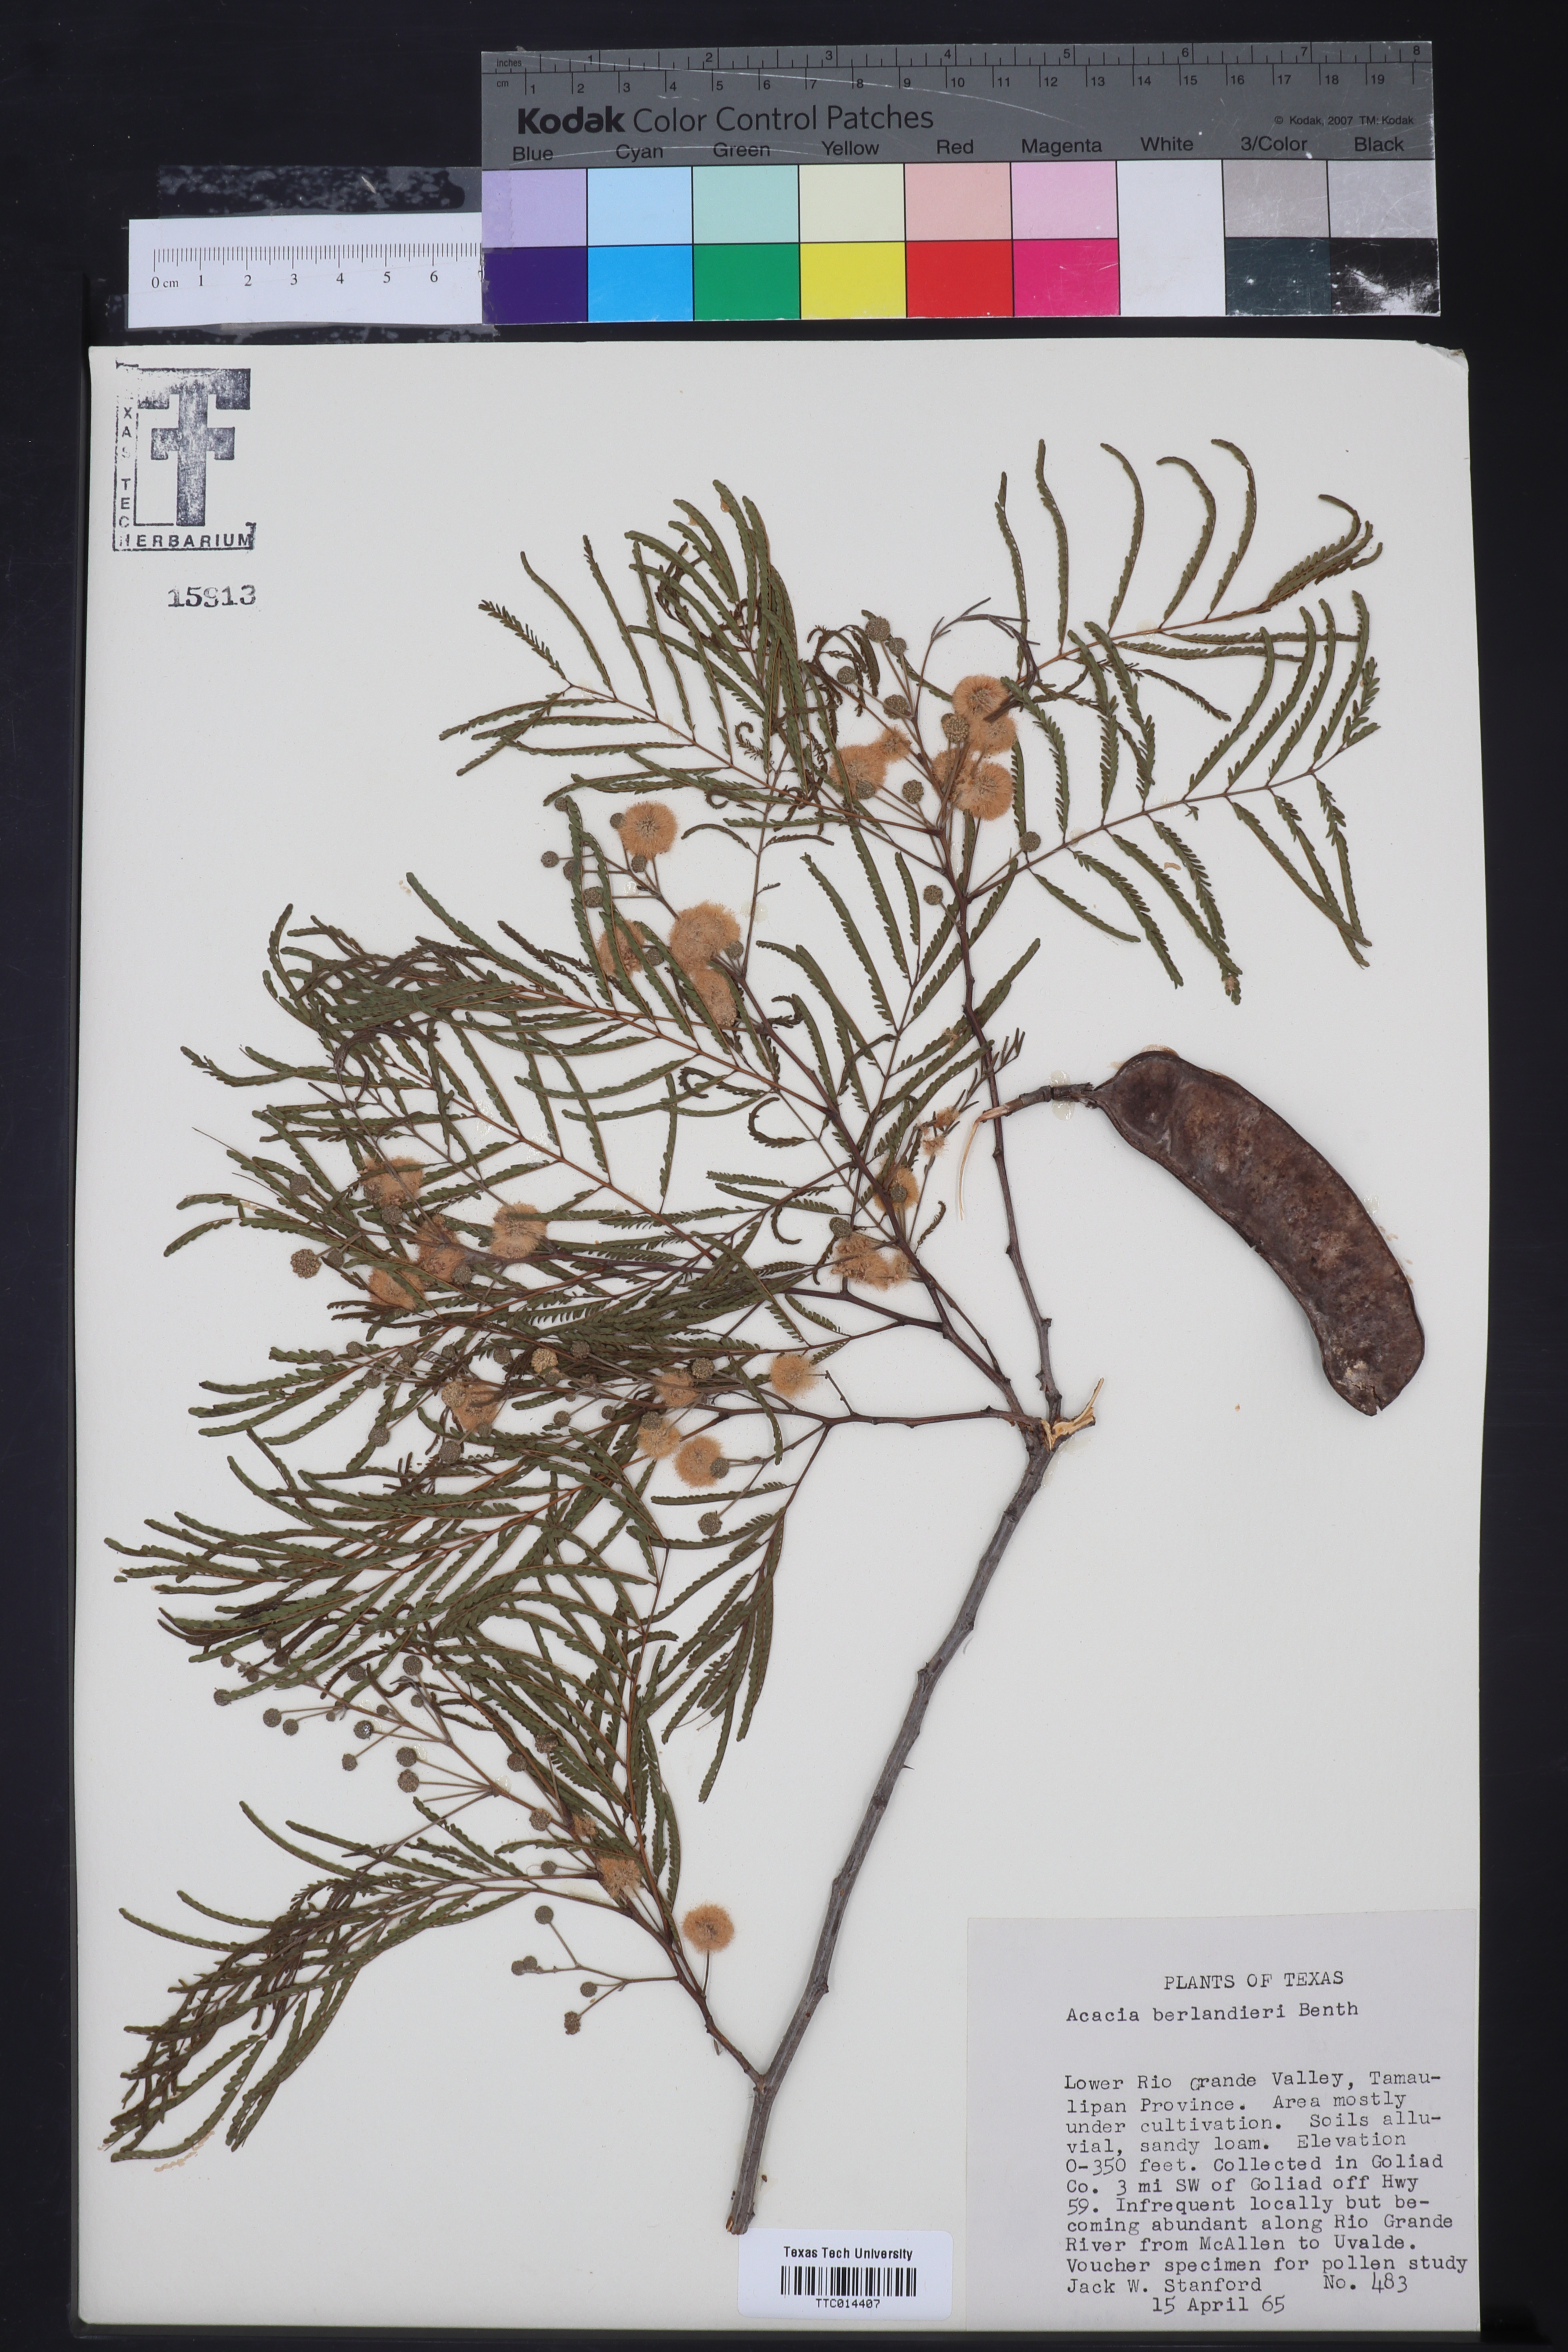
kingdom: Plantae
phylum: Tracheophyta
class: Magnoliopsida
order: Fabales
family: Fabaceae
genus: Senegalia
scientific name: Senegalia berlandieri
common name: Berlandier acacia
